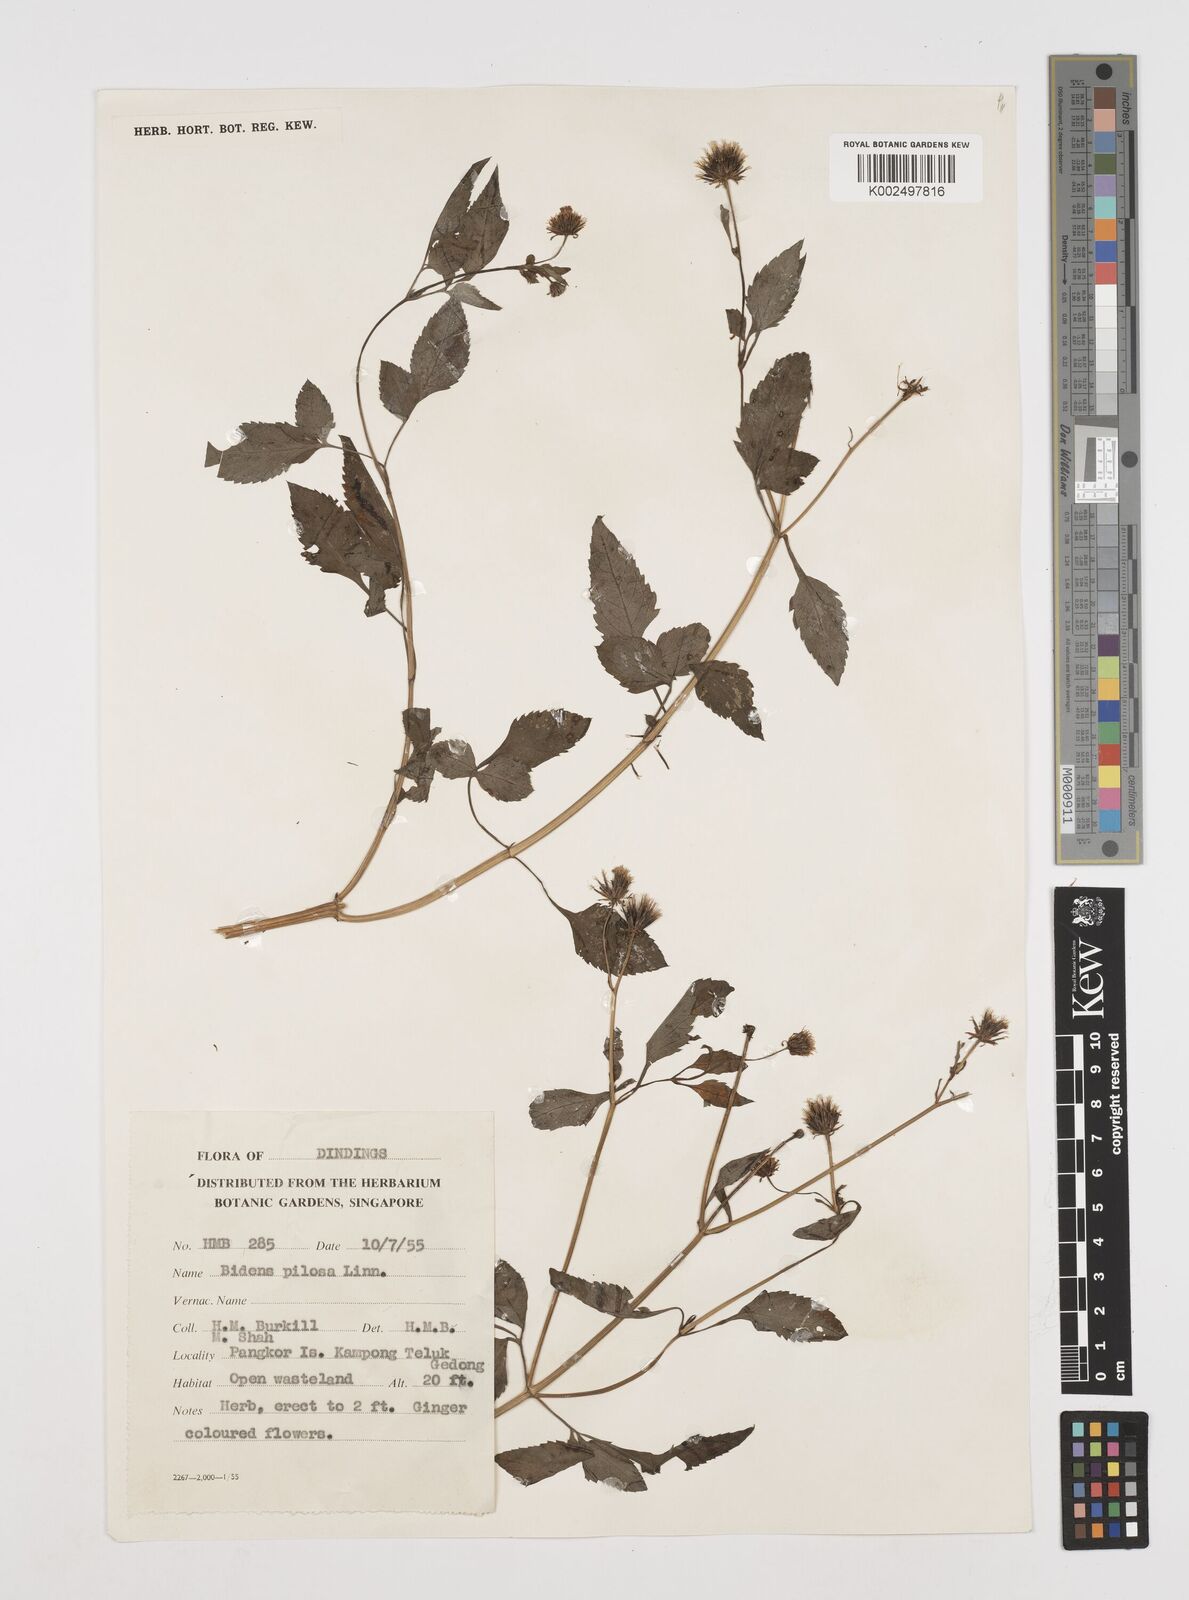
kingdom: Plantae
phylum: Tracheophyta
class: Magnoliopsida
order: Asterales
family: Asteraceae
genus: Bidens
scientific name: Bidens pilosa
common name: Black-jack
